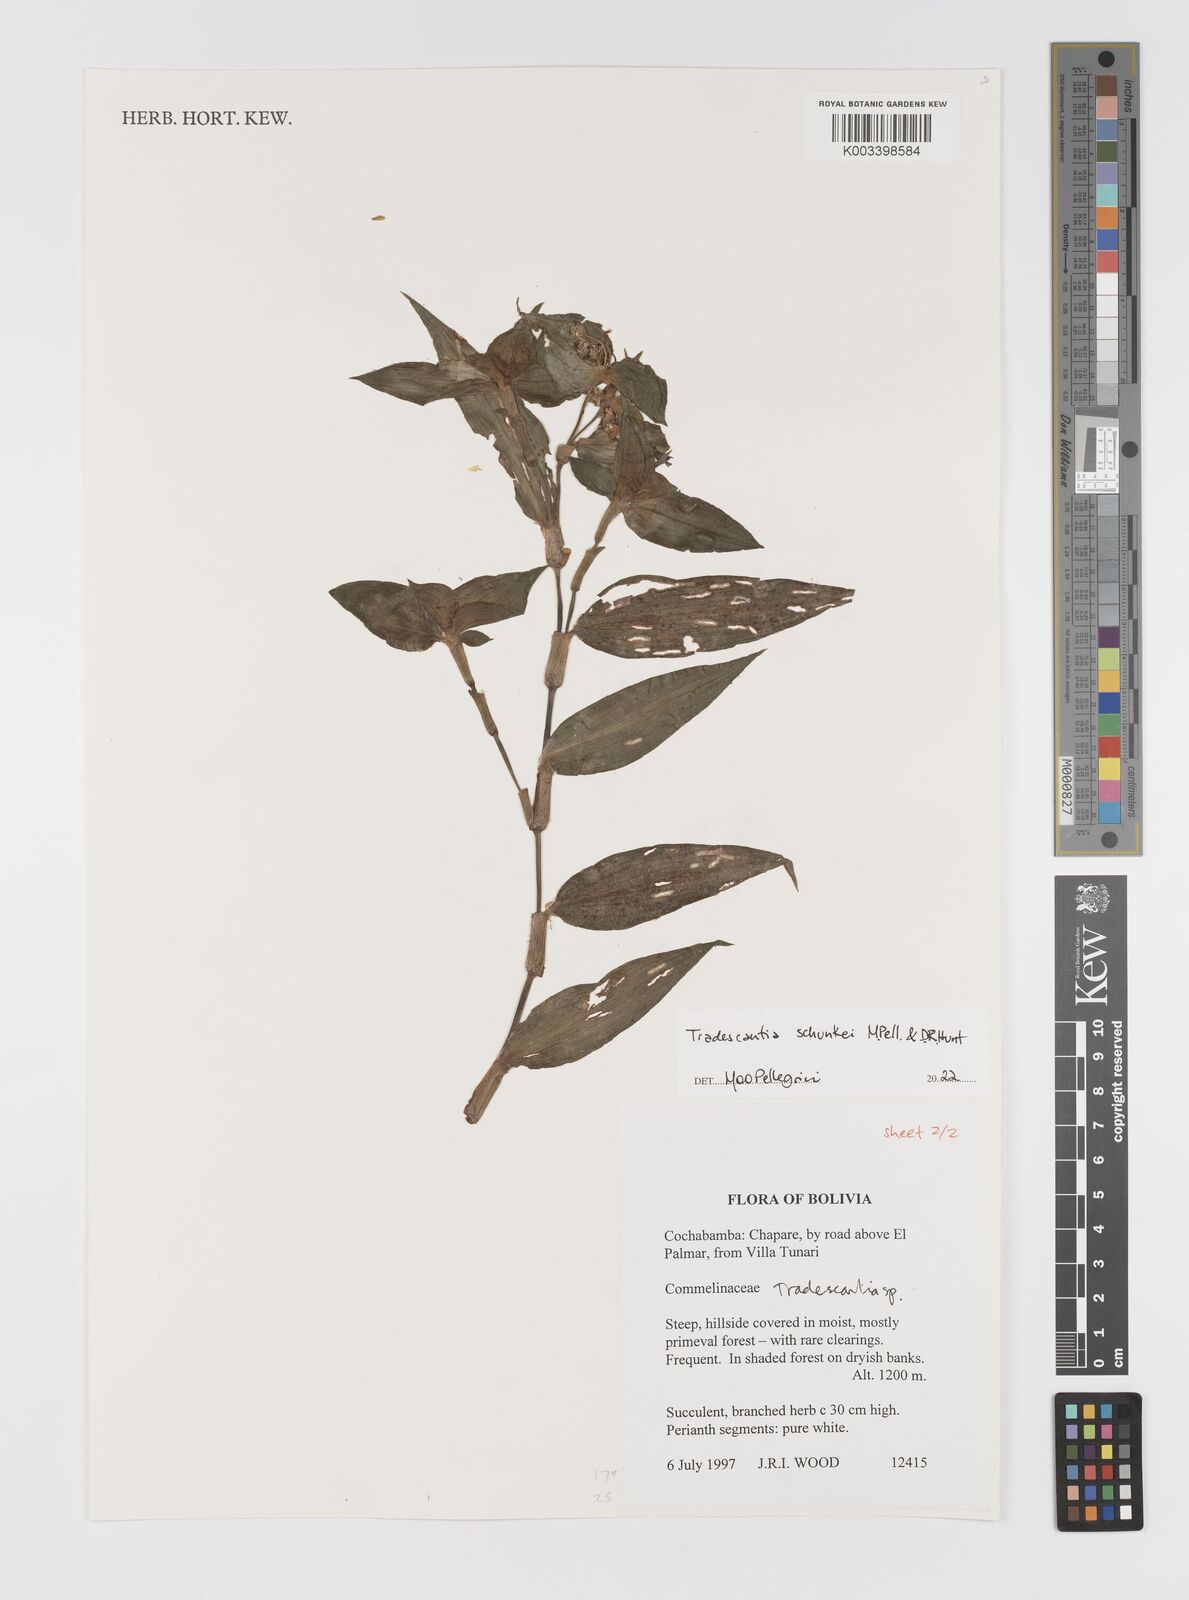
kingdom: Plantae
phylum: Tracheophyta
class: Liliopsida
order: Commelinales
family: Commelinaceae
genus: Tradescantia
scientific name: Tradescantia
